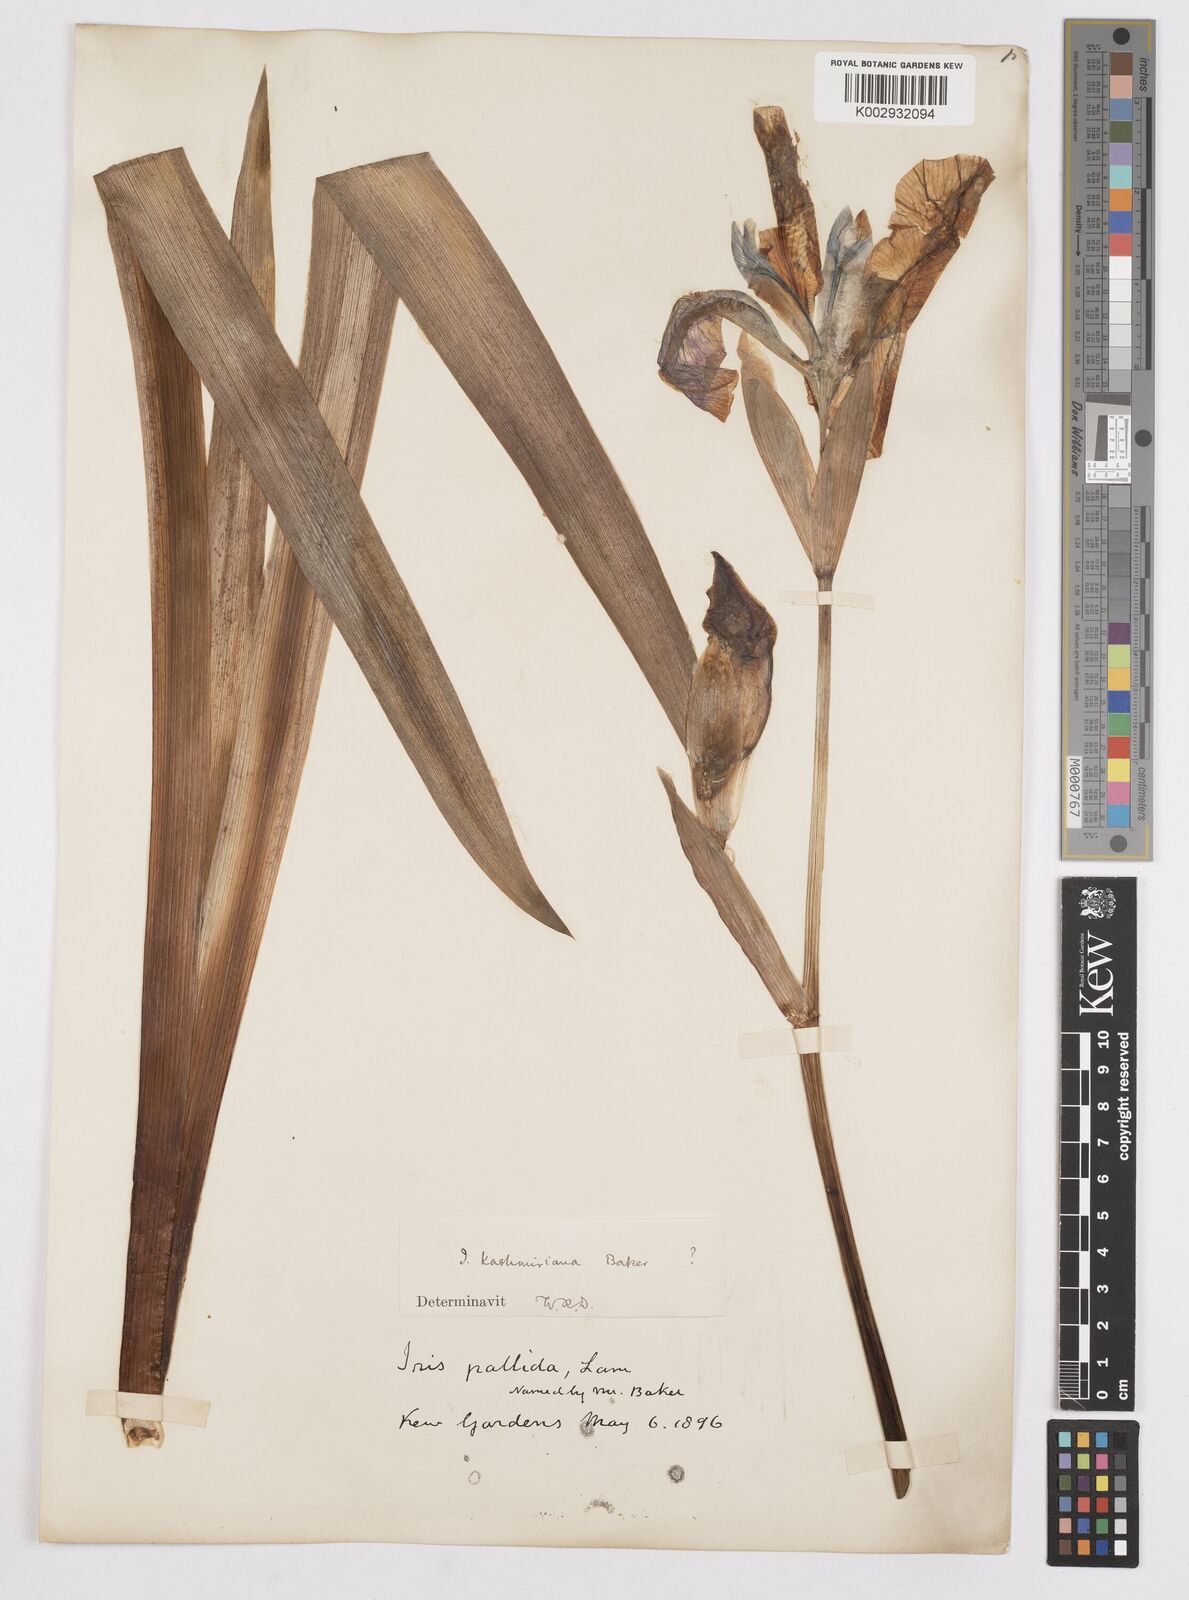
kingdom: Plantae
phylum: Tracheophyta
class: Liliopsida
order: Asparagales
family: Iridaceae
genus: Iris
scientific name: Iris kashmiriana
